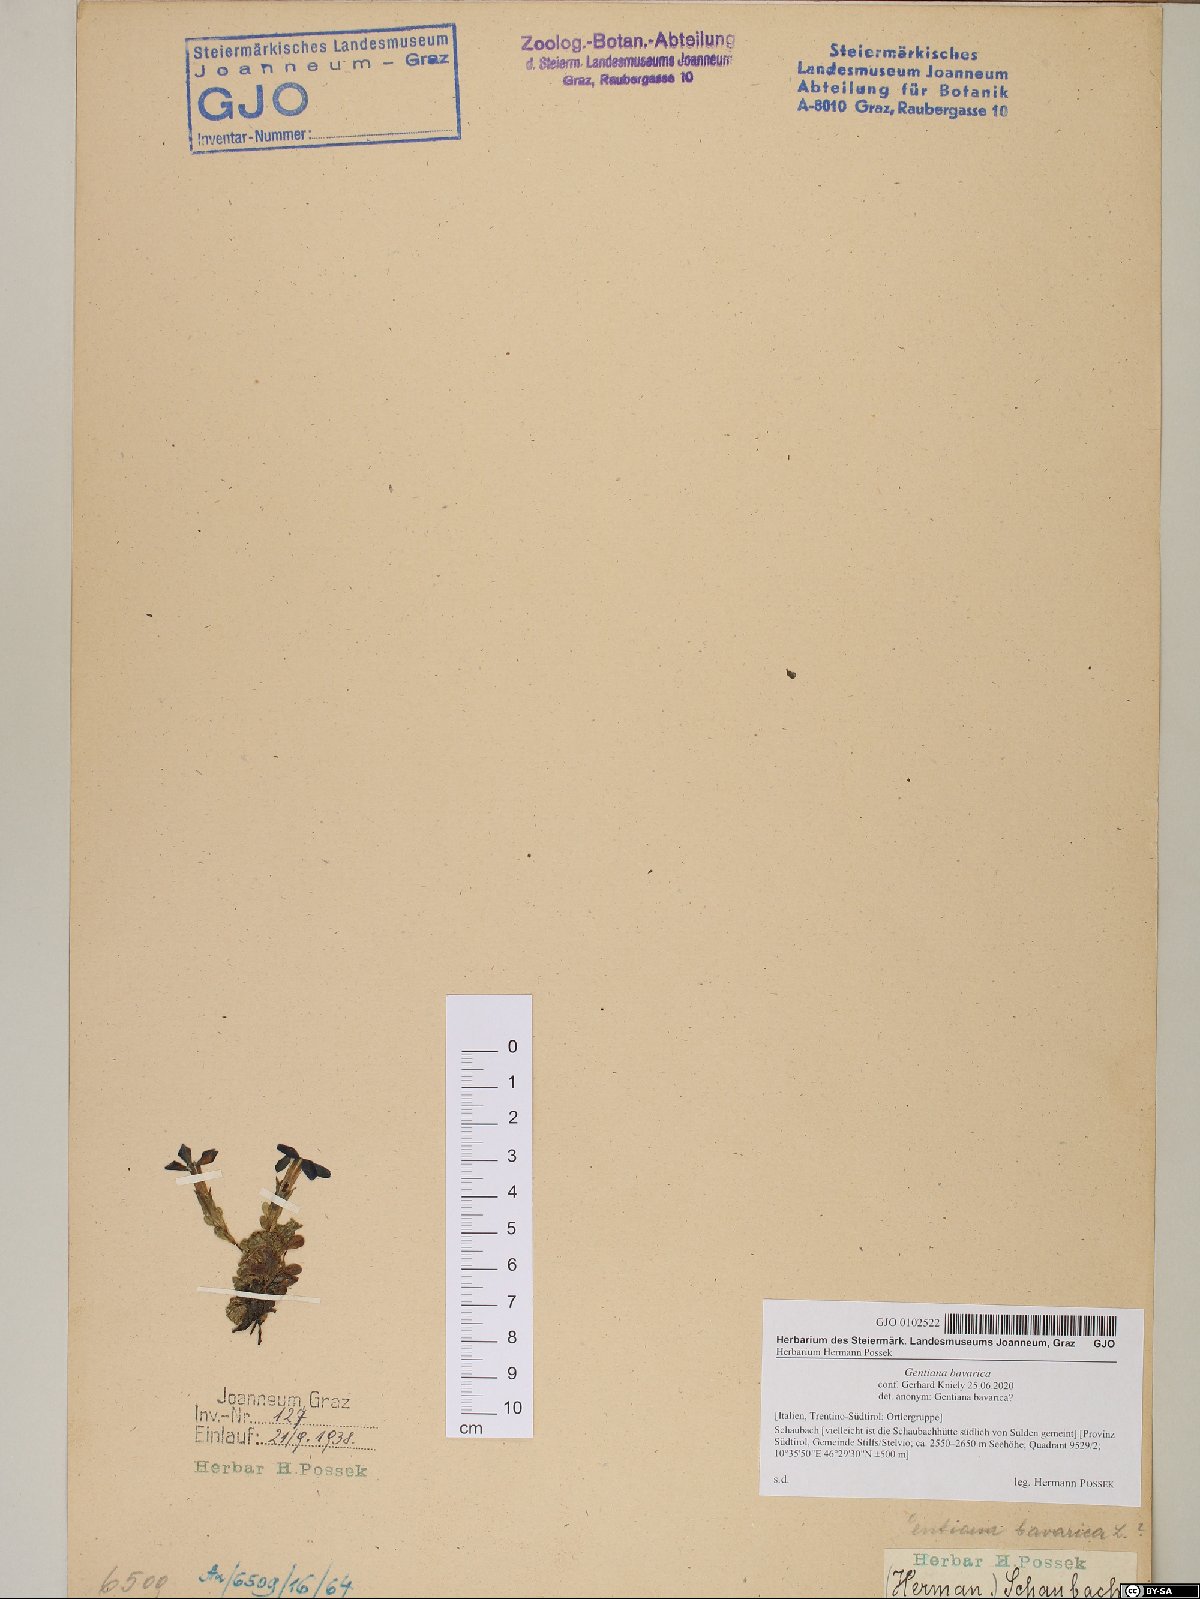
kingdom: Plantae
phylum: Tracheophyta
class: Magnoliopsida
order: Gentianales
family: Gentianaceae
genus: Gentiana
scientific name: Gentiana bavarica
